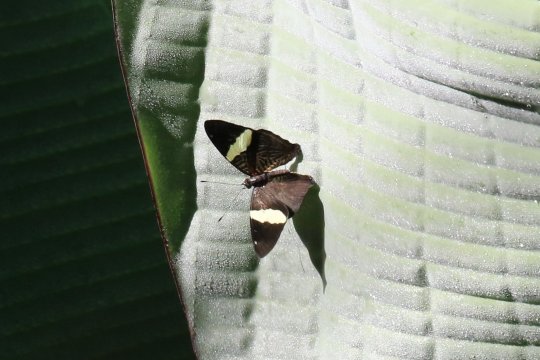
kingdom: Animalia
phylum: Arthropoda
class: Insecta
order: Lepidoptera
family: Nymphalidae
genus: Colobura
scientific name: Colobura dirce
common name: Dirce Beauty
